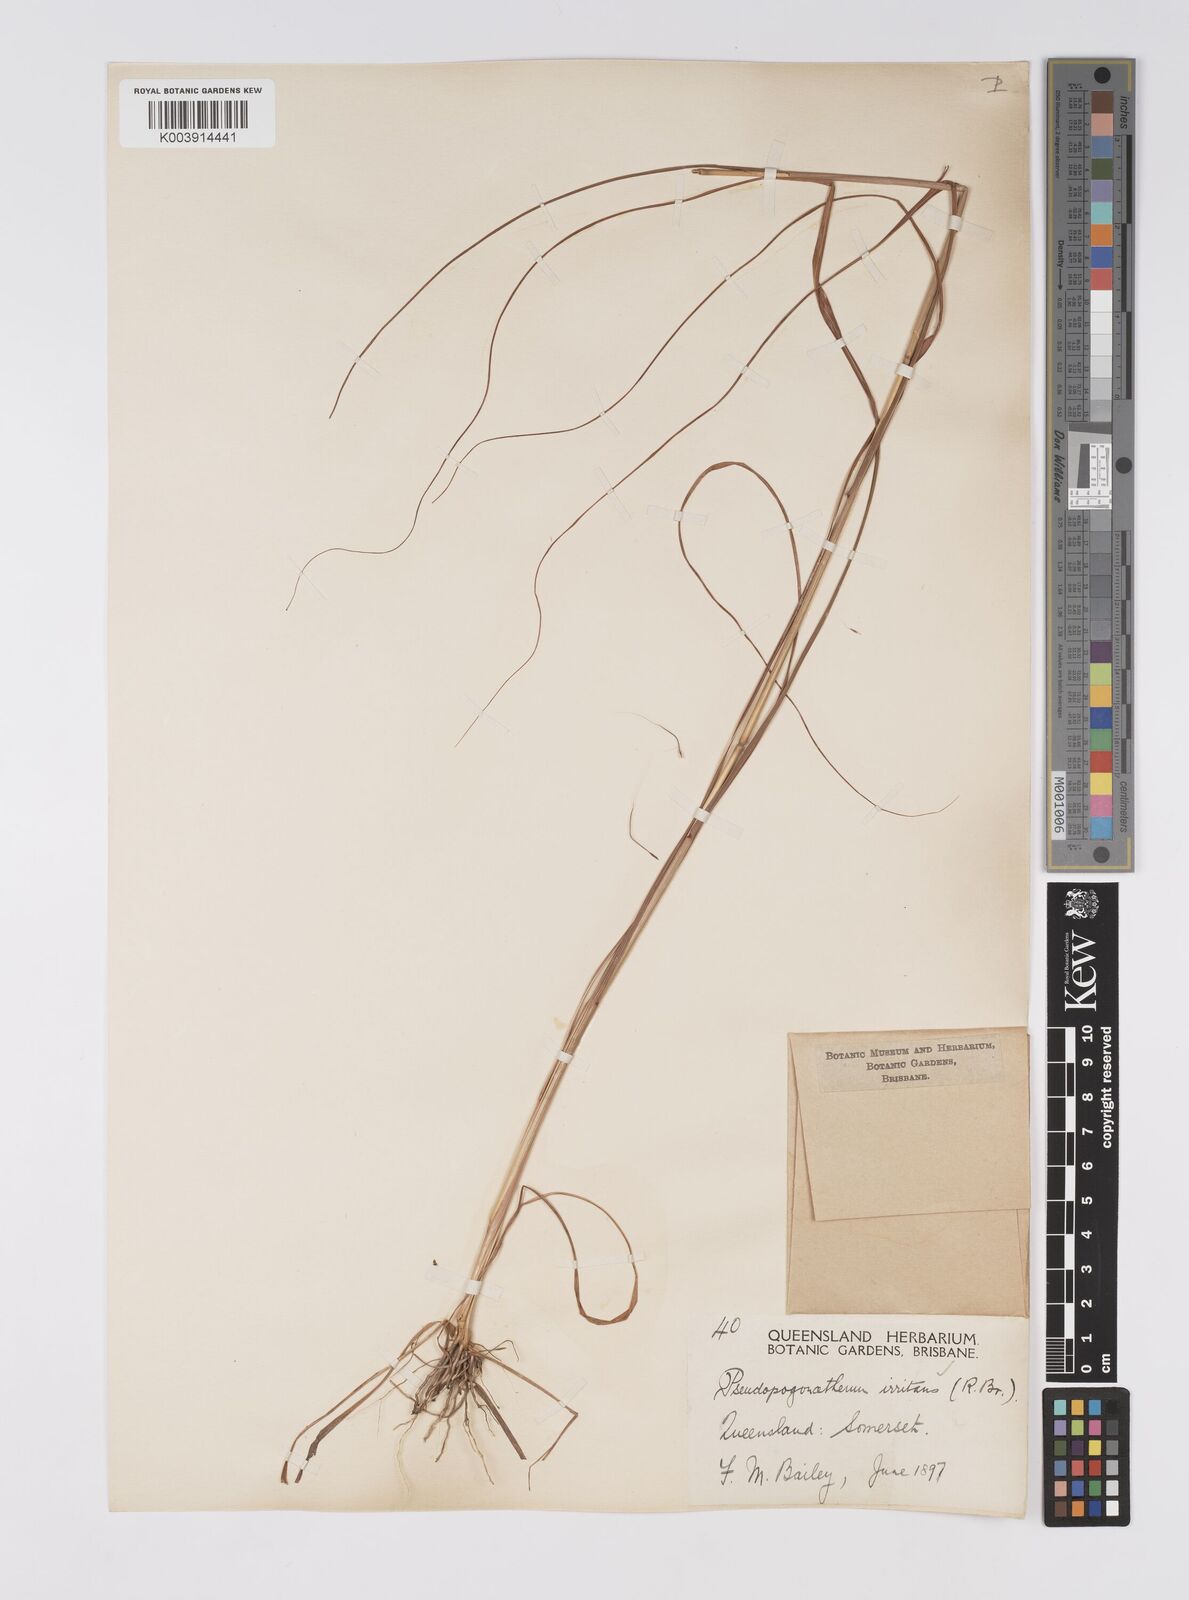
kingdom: Plantae
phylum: Tracheophyta
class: Liliopsida
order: Poales
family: Poaceae
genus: Pseudopogonatherum
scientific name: Pseudopogonatherum irritans
